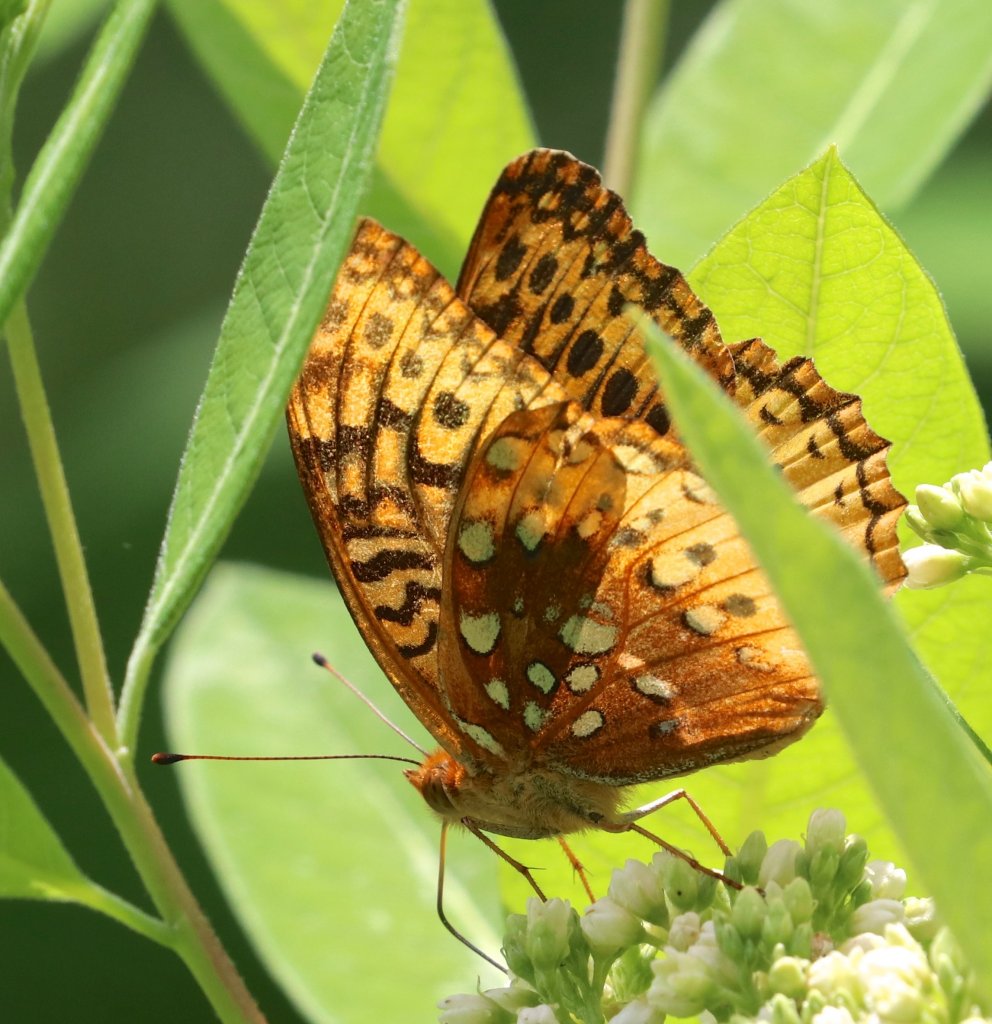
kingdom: Animalia
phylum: Arthropoda
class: Insecta
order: Lepidoptera
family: Nymphalidae
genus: Speyeria
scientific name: Speyeria cybele
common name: Great Spangled Fritillary
